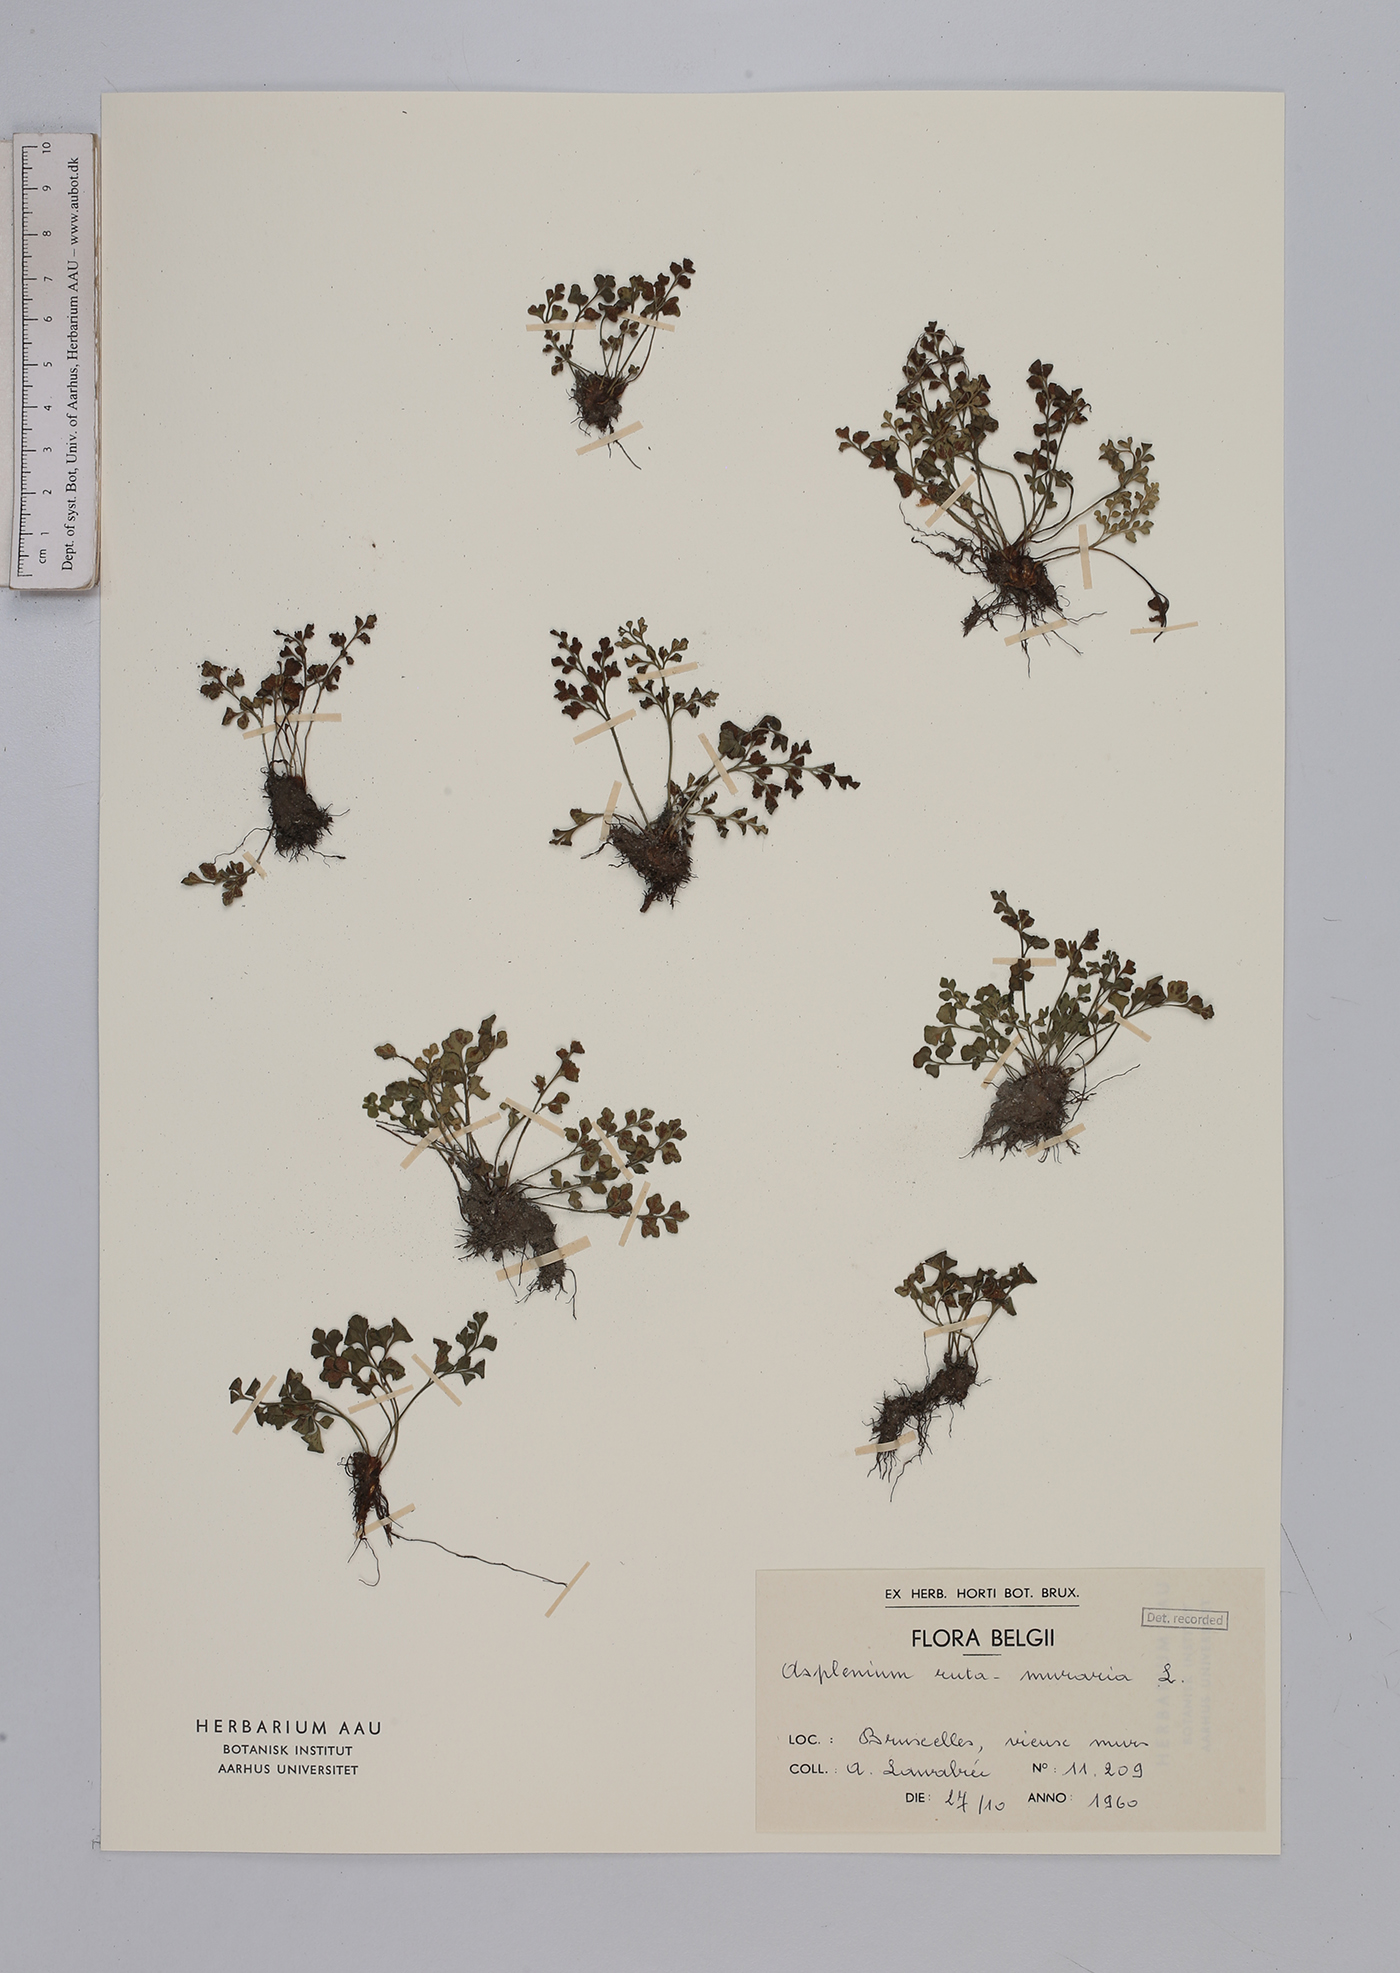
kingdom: Plantae
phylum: Tracheophyta
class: Polypodiopsida
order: Polypodiales
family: Aspleniaceae
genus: Asplenium
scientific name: Asplenium ruta-muraria
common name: Wall-rue
